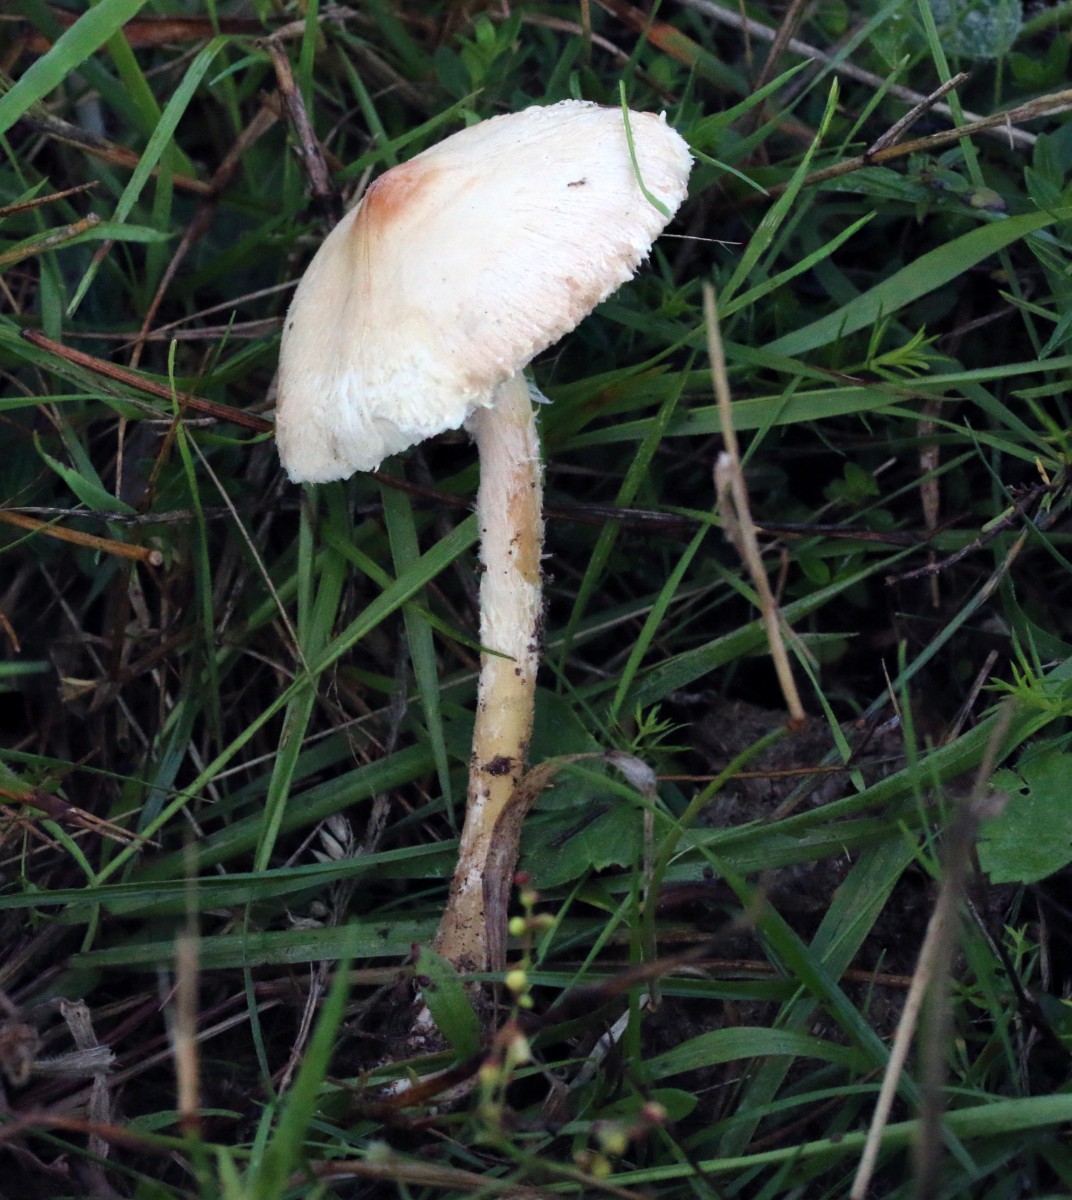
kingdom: Fungi
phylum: Basidiomycota
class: Agaricomycetes
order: Agaricales
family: Agaricaceae
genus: Lepiota
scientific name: Lepiota oreadiformis
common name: blegbrun parasolhat
